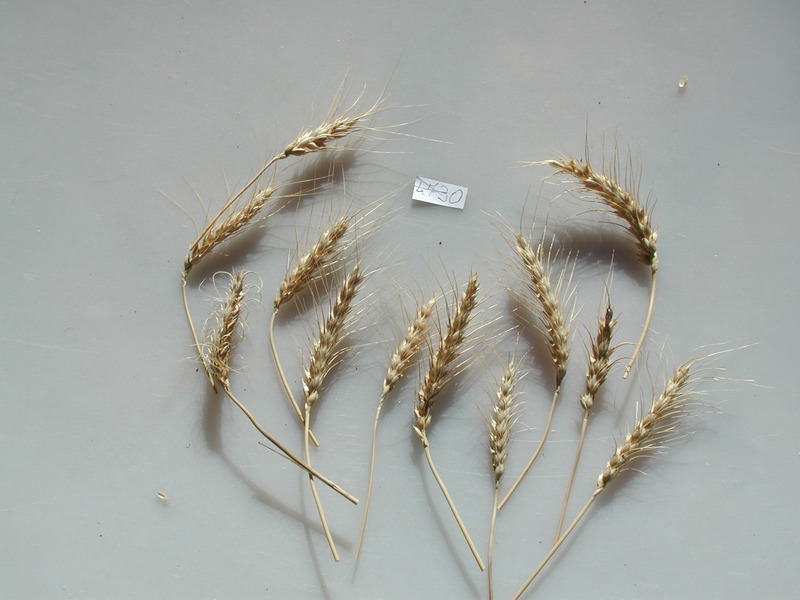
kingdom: Plantae
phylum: Tracheophyta
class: Liliopsida
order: Poales
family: Poaceae
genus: Triticum
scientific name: Triticum aestivum
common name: Wheat
